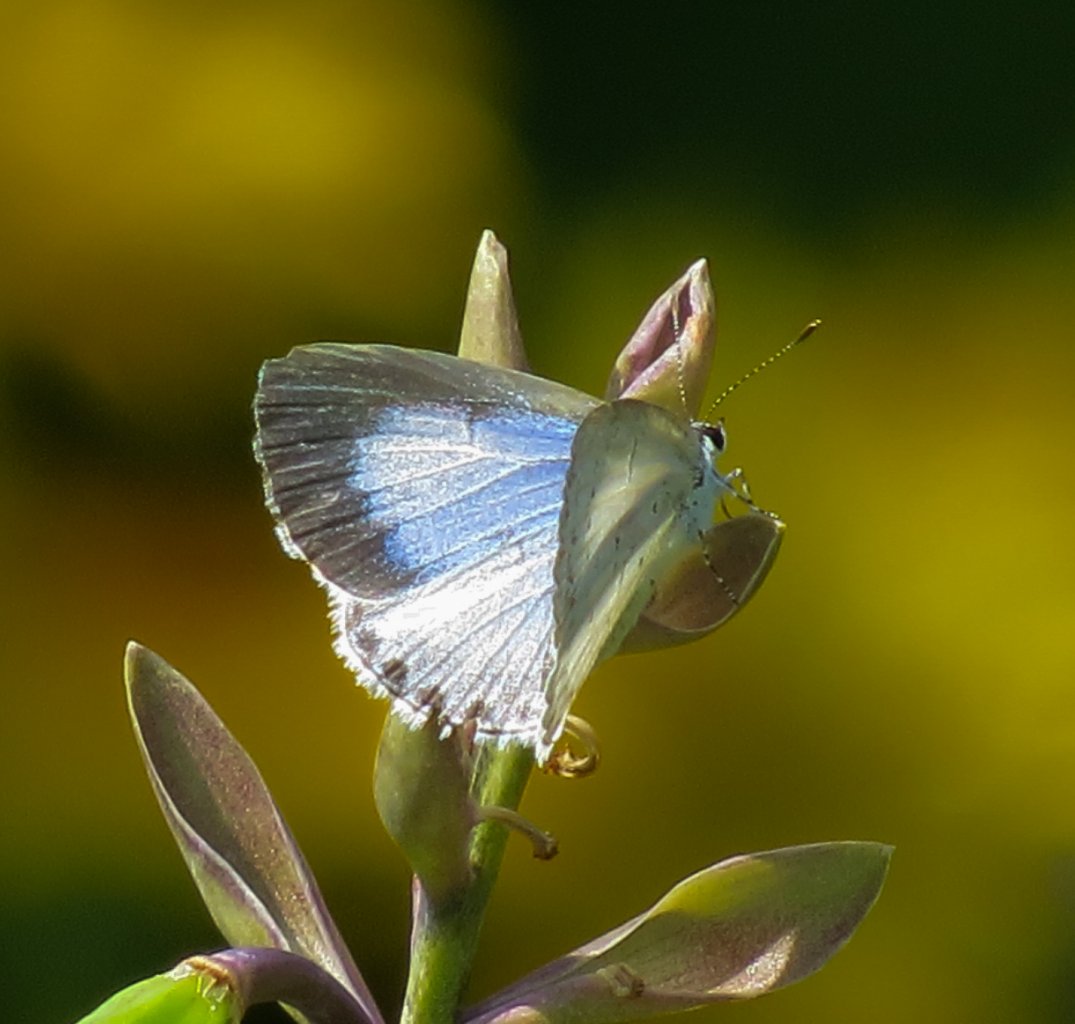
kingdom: Animalia
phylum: Arthropoda
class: Insecta
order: Lepidoptera
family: Lycaenidae
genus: Cyaniris
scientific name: Cyaniris neglecta
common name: Summer Azure
